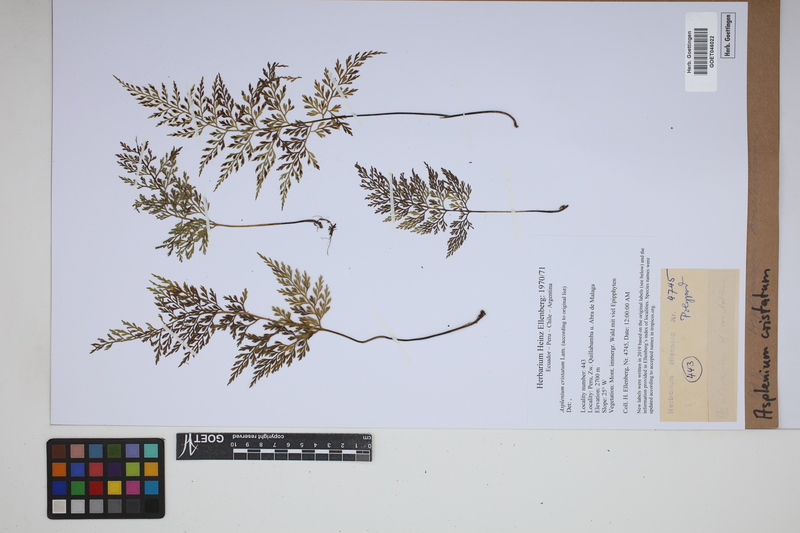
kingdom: Plantae
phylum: Tracheophyta
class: Polypodiopsida
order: Polypodiales
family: Aspleniaceae
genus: Asplenium
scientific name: Asplenium cristatum
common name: Parsley spleenwort
